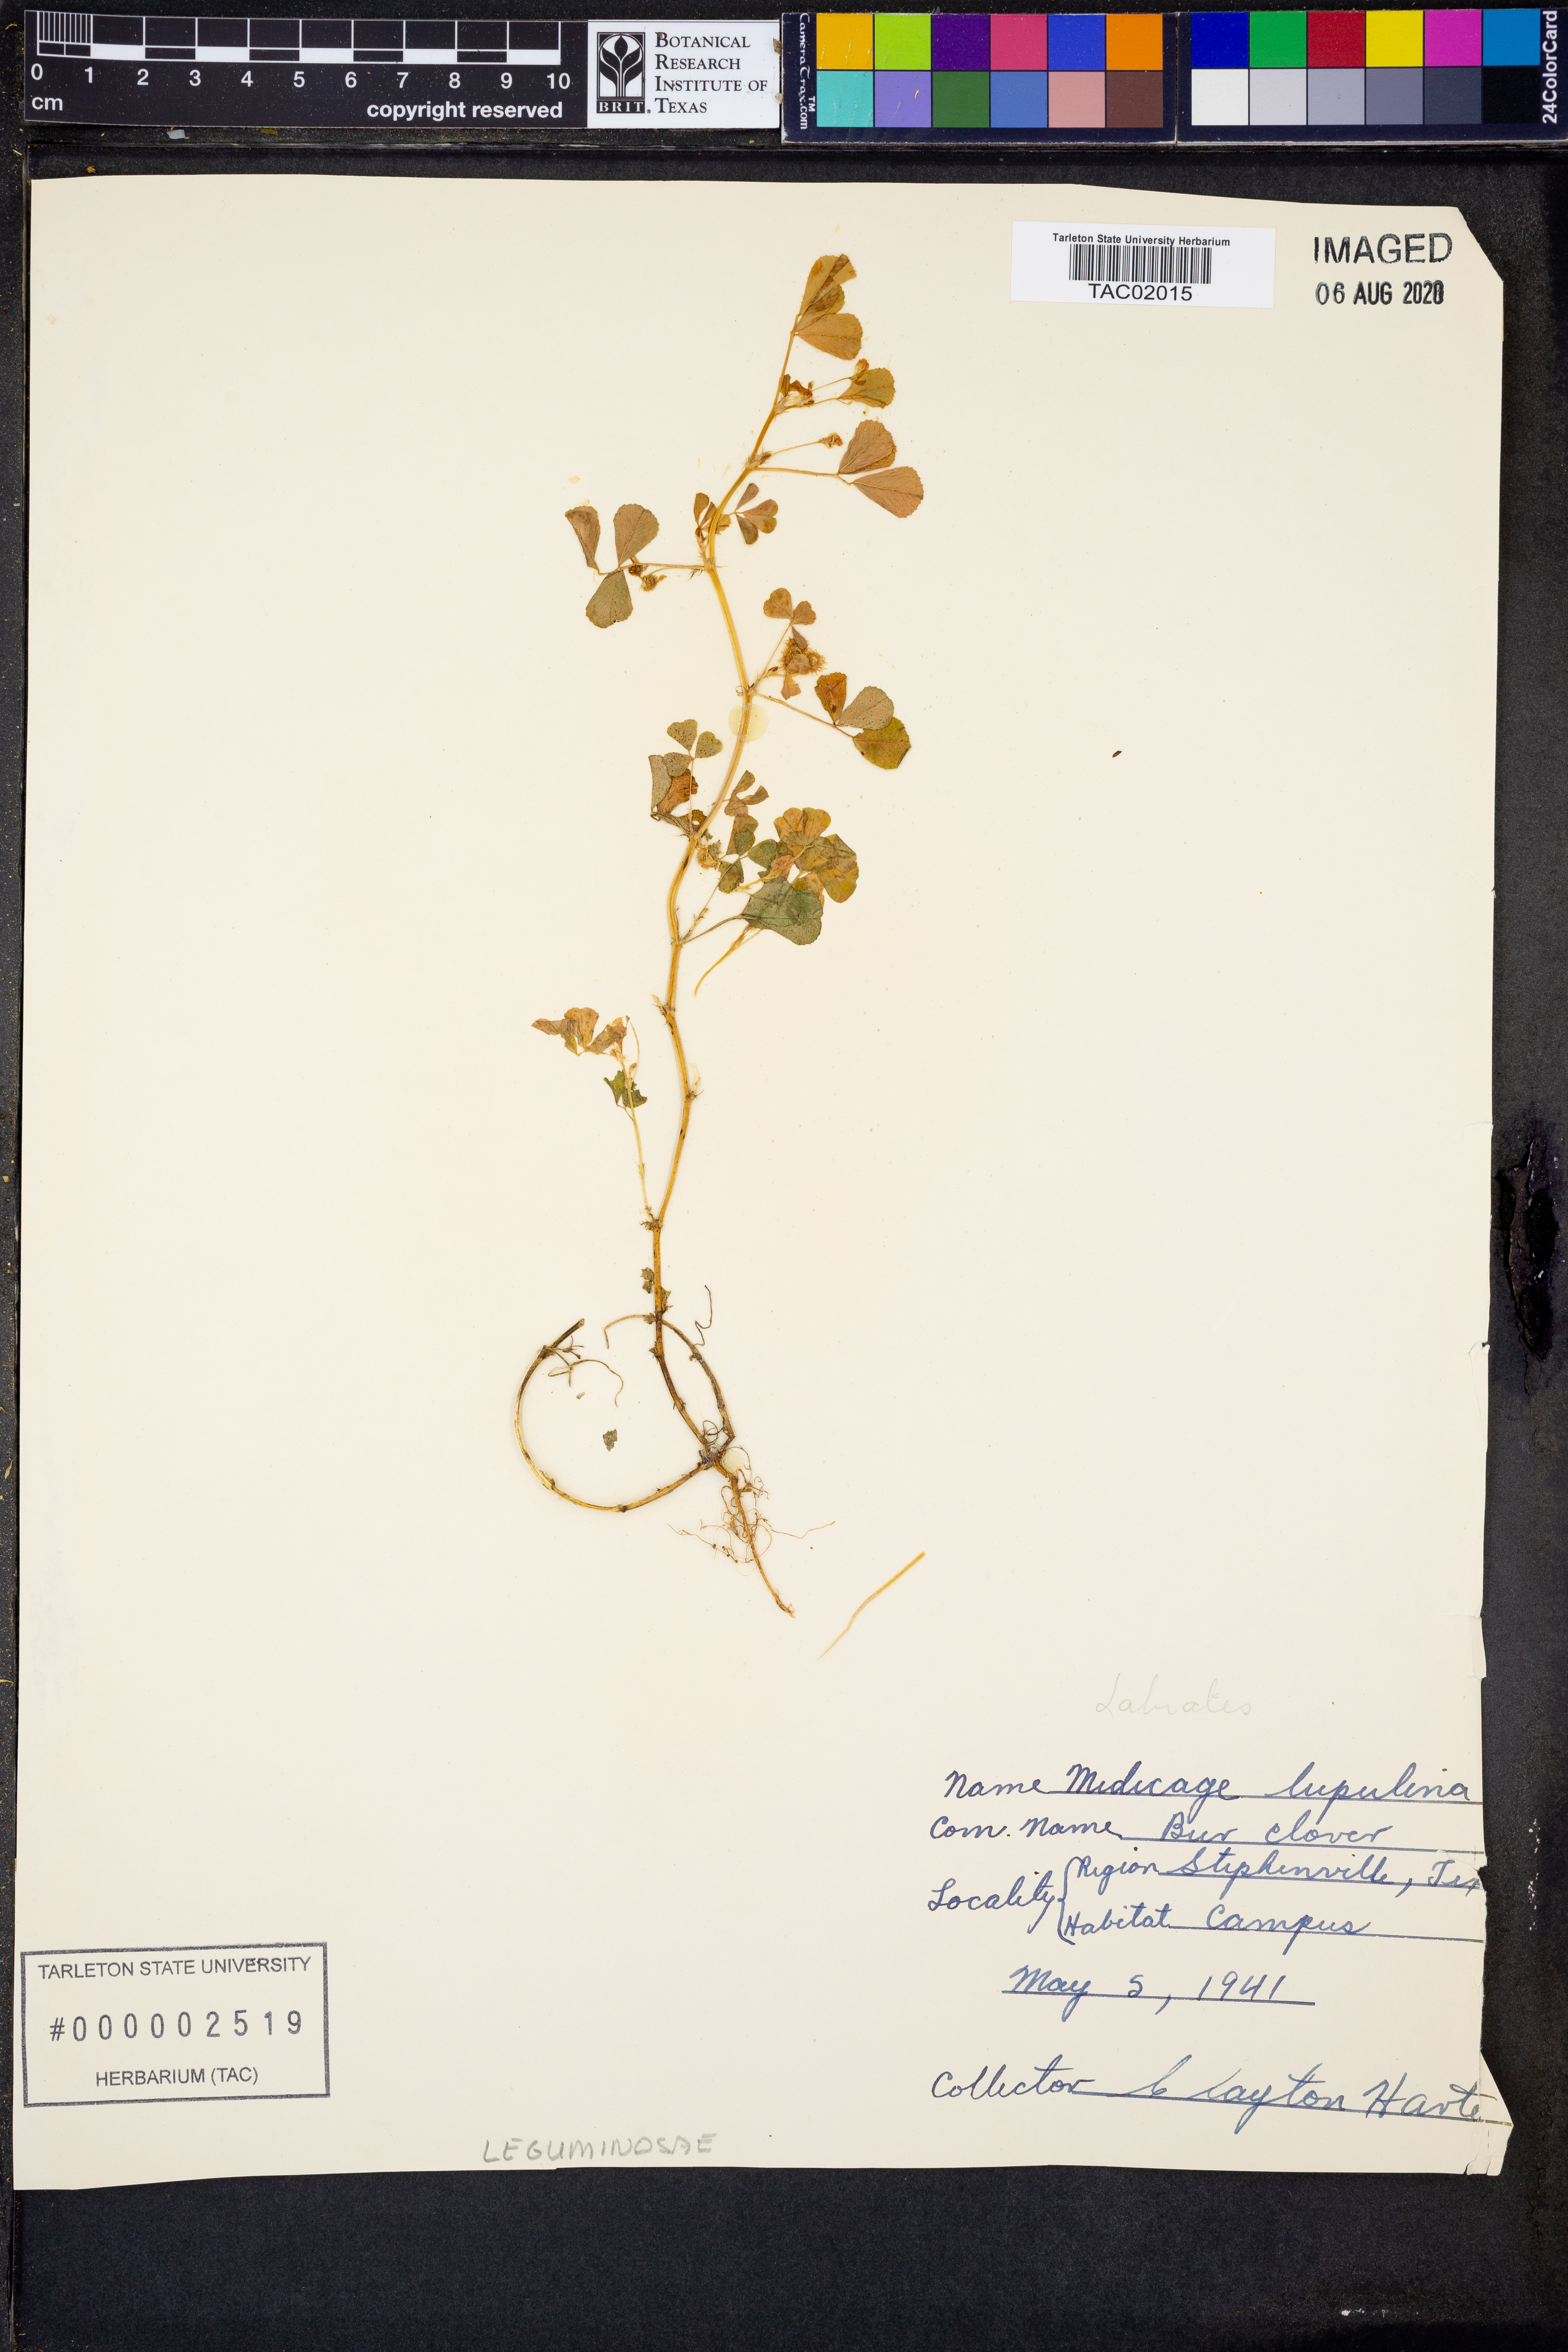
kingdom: Plantae
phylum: Tracheophyta
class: Magnoliopsida
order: Fabales
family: Fabaceae
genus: Medicago
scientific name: Medicago lupulina
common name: Black medick
